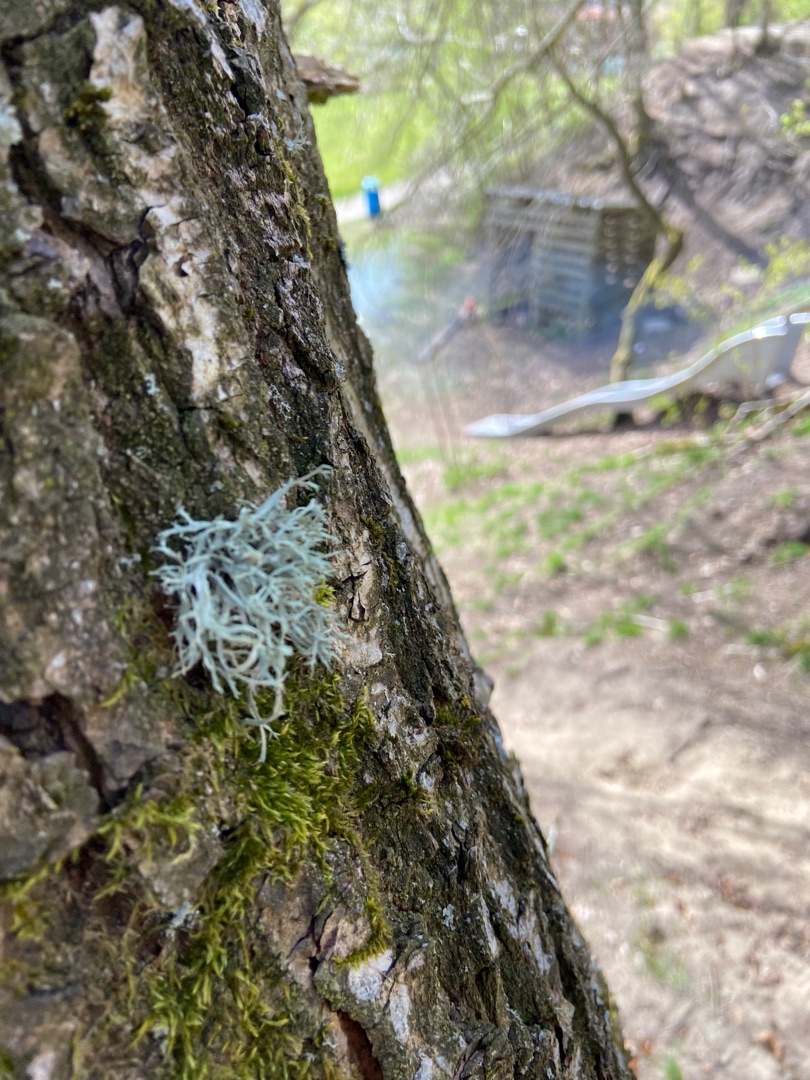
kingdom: Fungi
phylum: Ascomycota
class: Lecanoromycetes
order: Lecanorales
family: Ramalinaceae
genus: Ramalina
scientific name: Ramalina farinacea
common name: Melet grenlav
